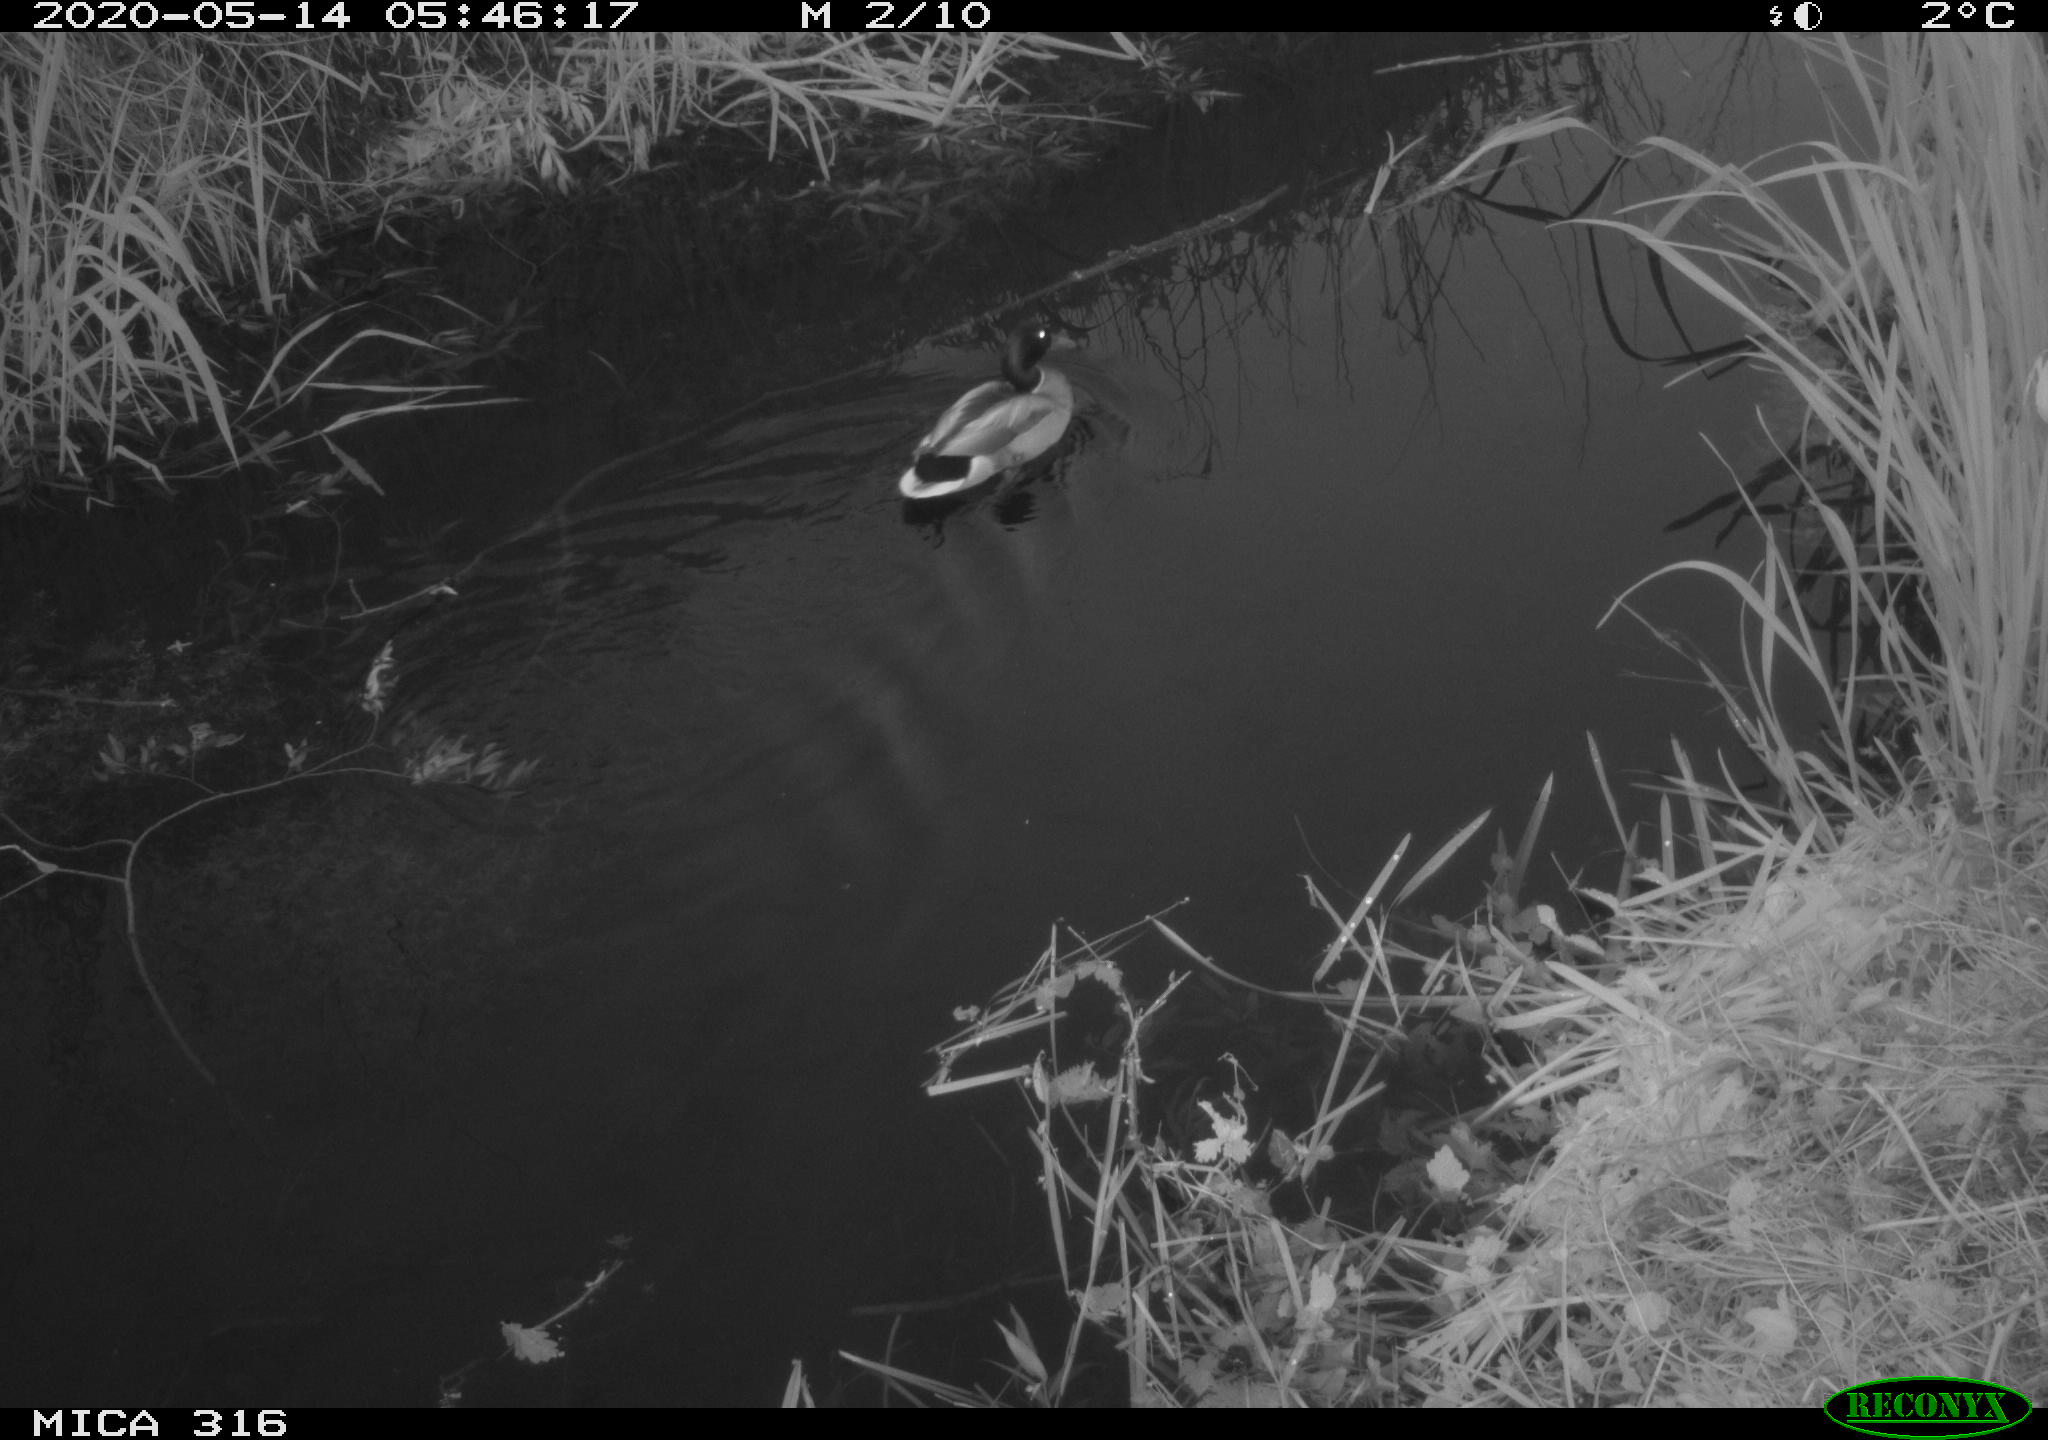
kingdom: Animalia
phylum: Chordata
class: Aves
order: Anseriformes
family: Anatidae
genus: Anas
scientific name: Anas platyrhynchos
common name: Mallard
